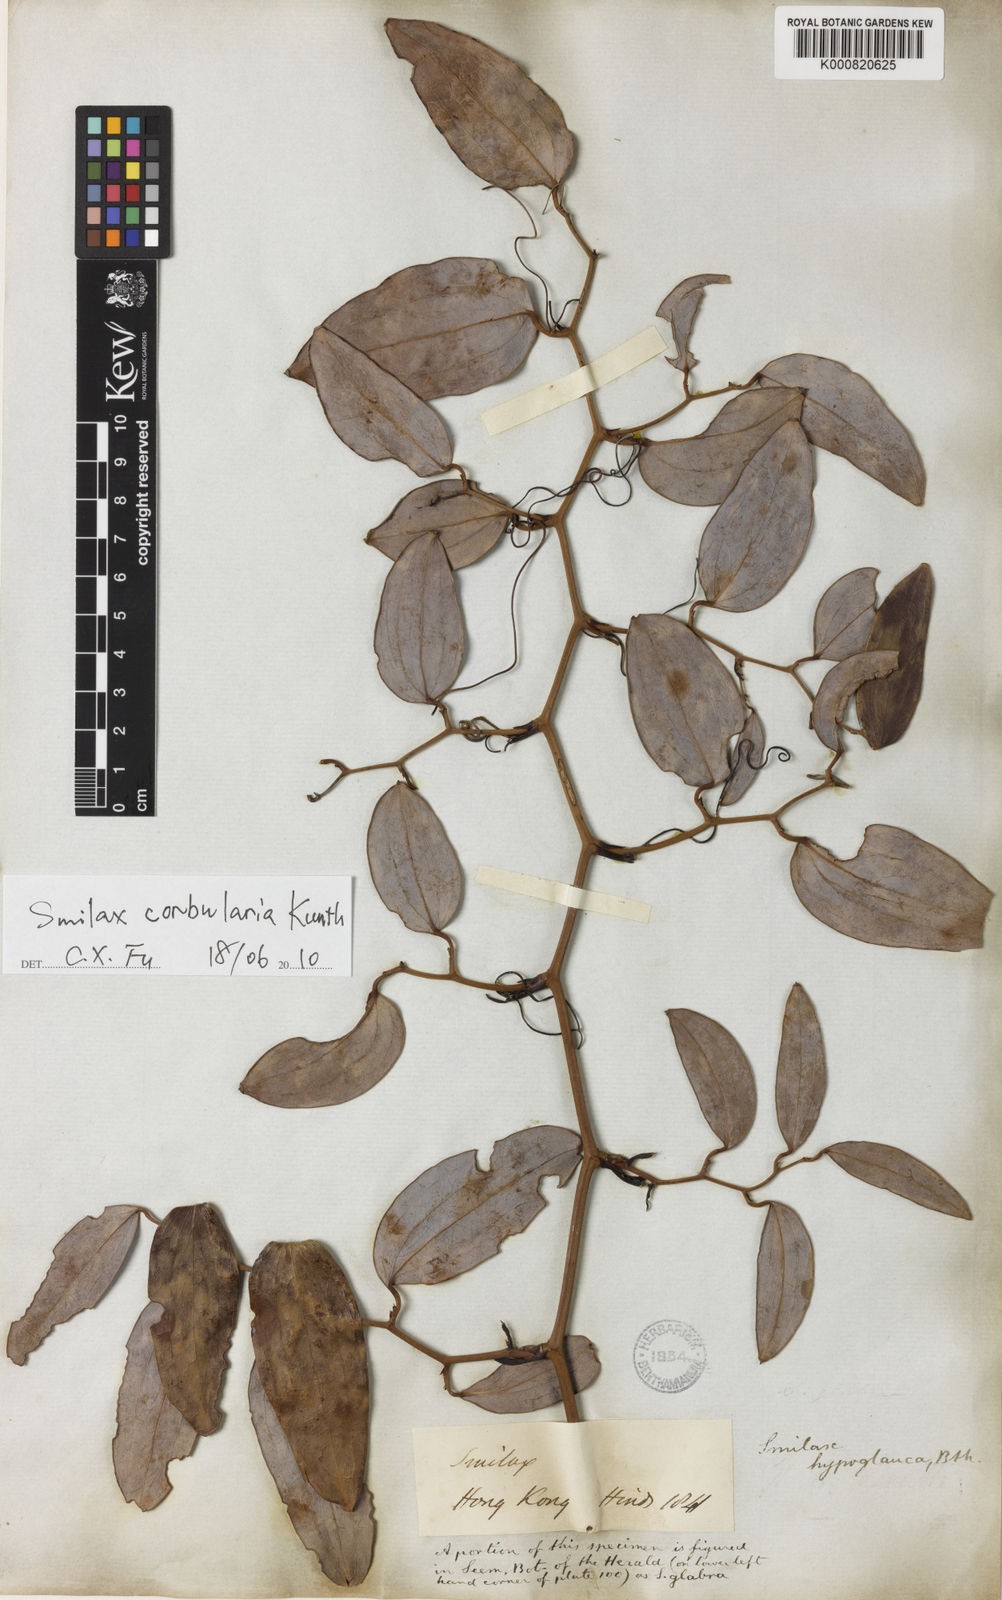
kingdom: Plantae
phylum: Tracheophyta
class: Liliopsida
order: Liliales
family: Smilacaceae
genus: Smilax
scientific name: Smilax hypoglauca
